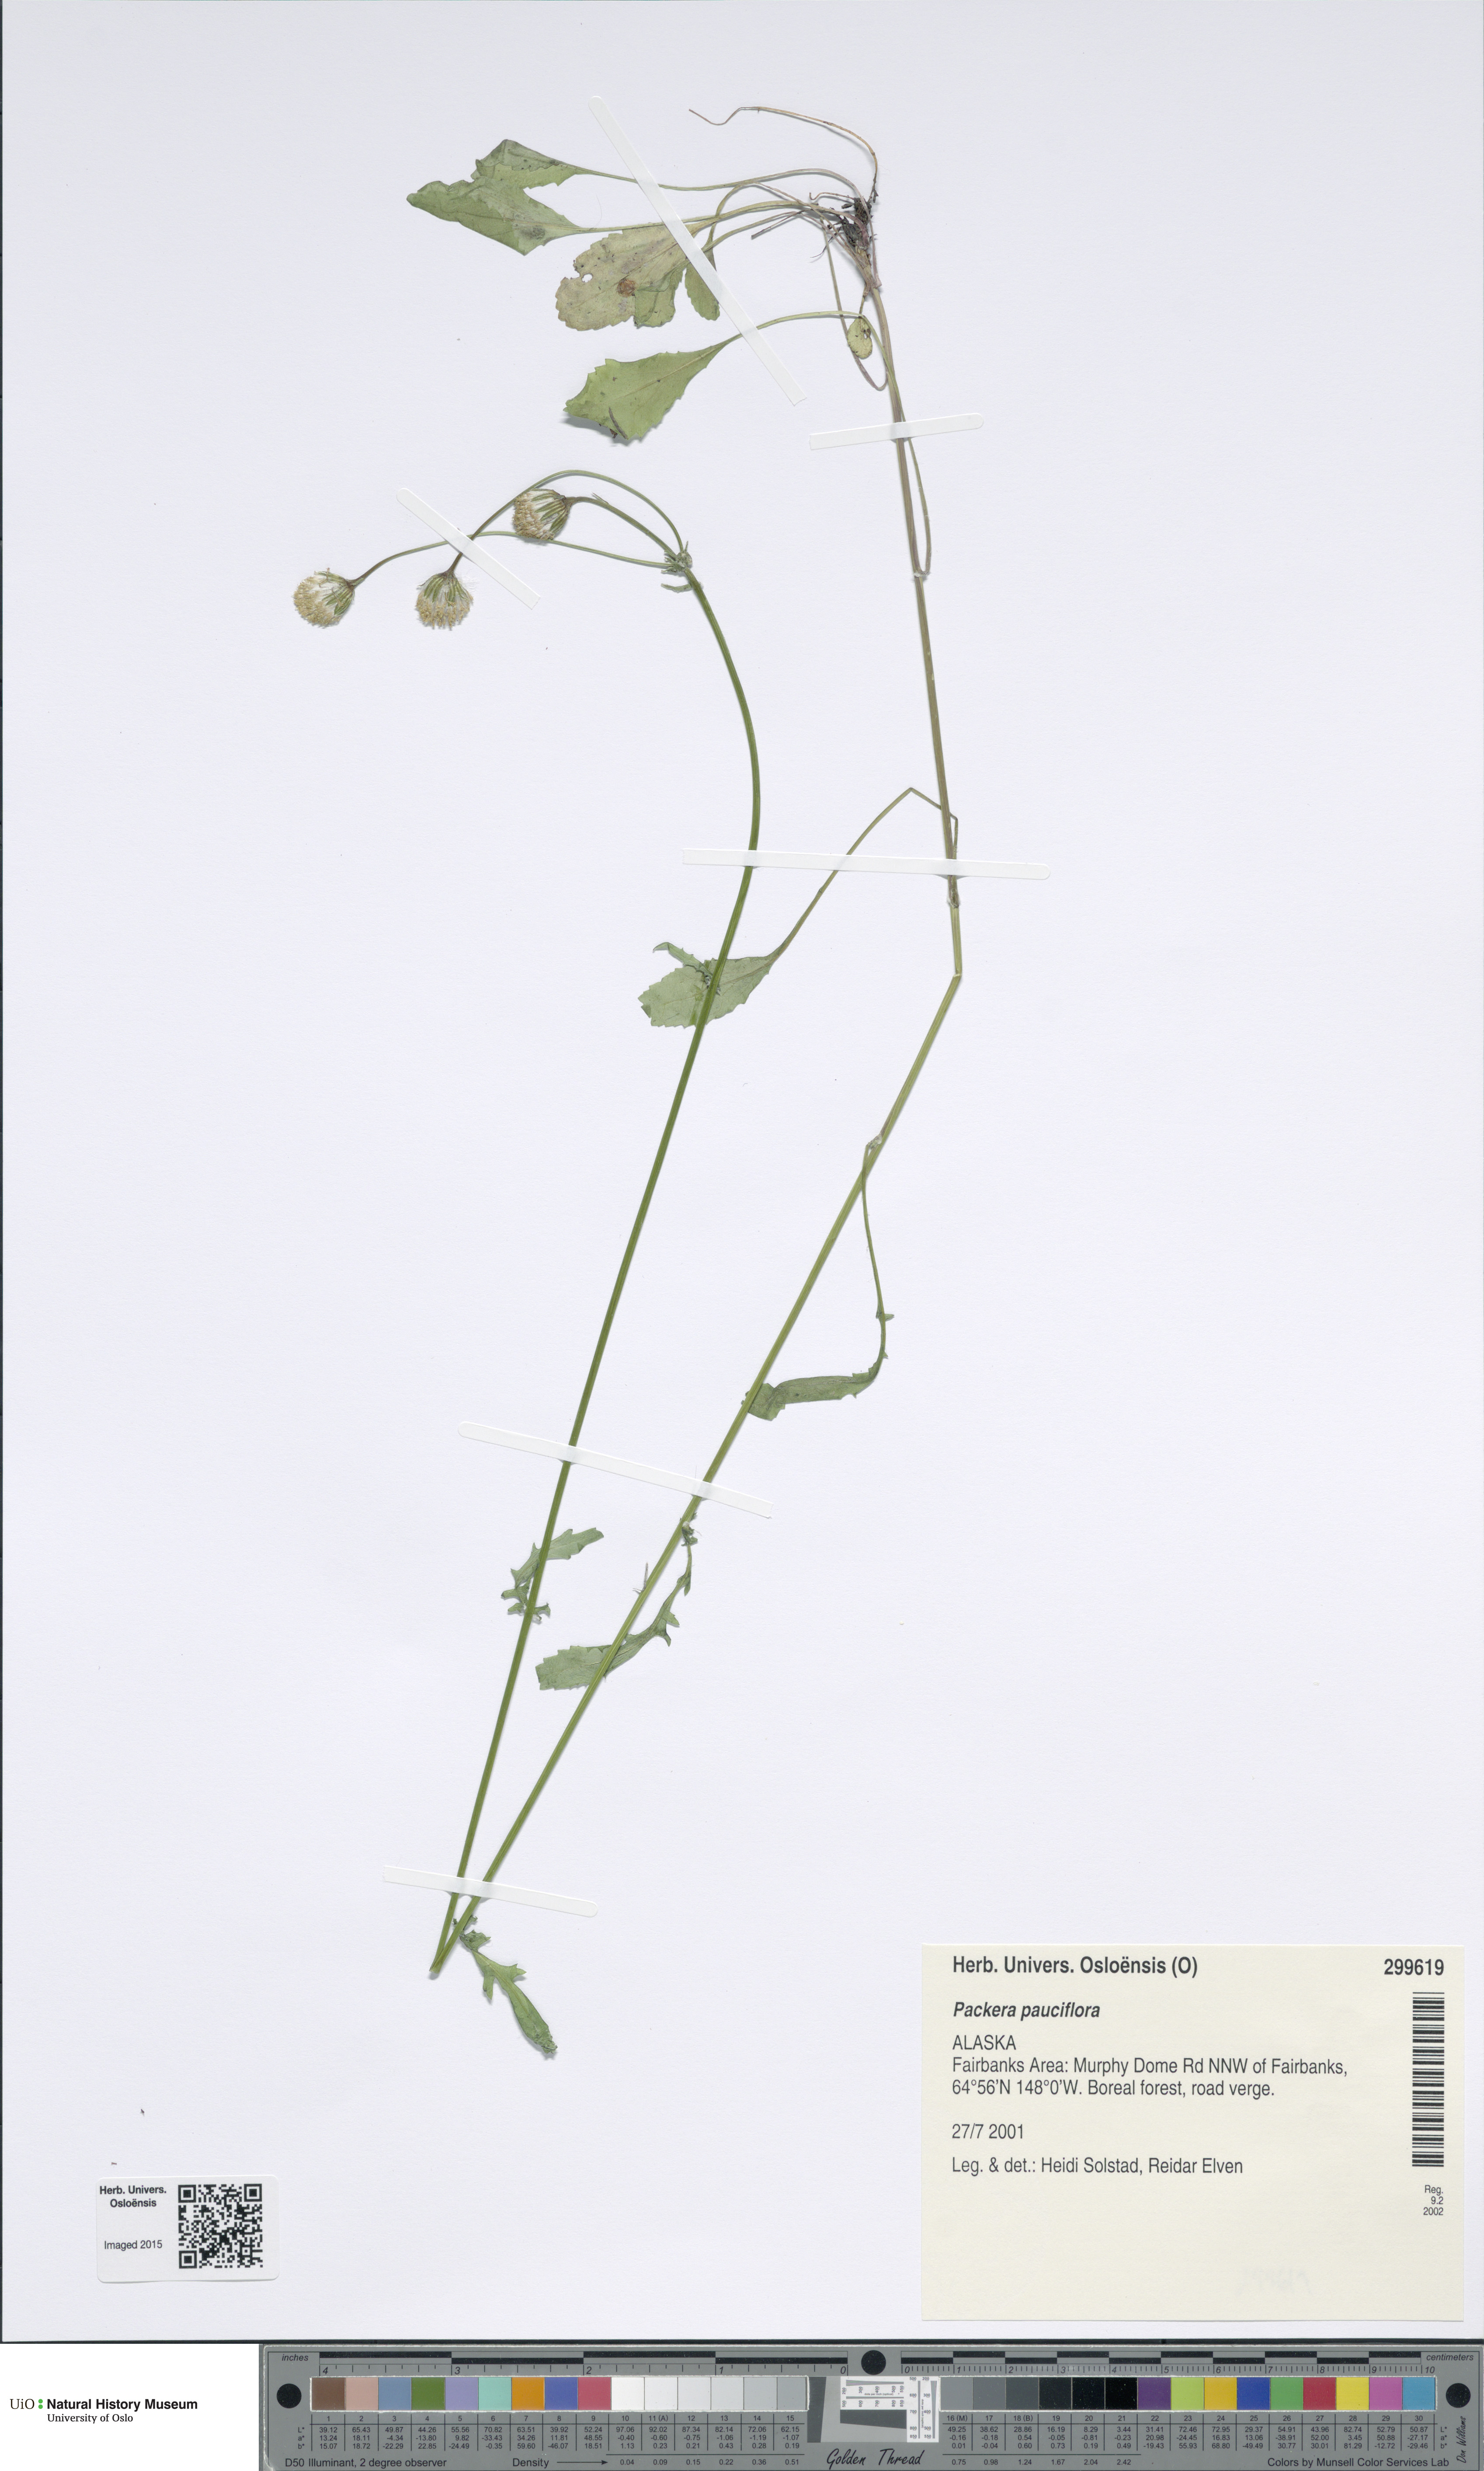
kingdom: Plantae
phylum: Tracheophyta
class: Magnoliopsida
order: Asterales
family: Asteraceae
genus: Packera
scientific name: Packera pauciflora
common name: Alpine groundsel
